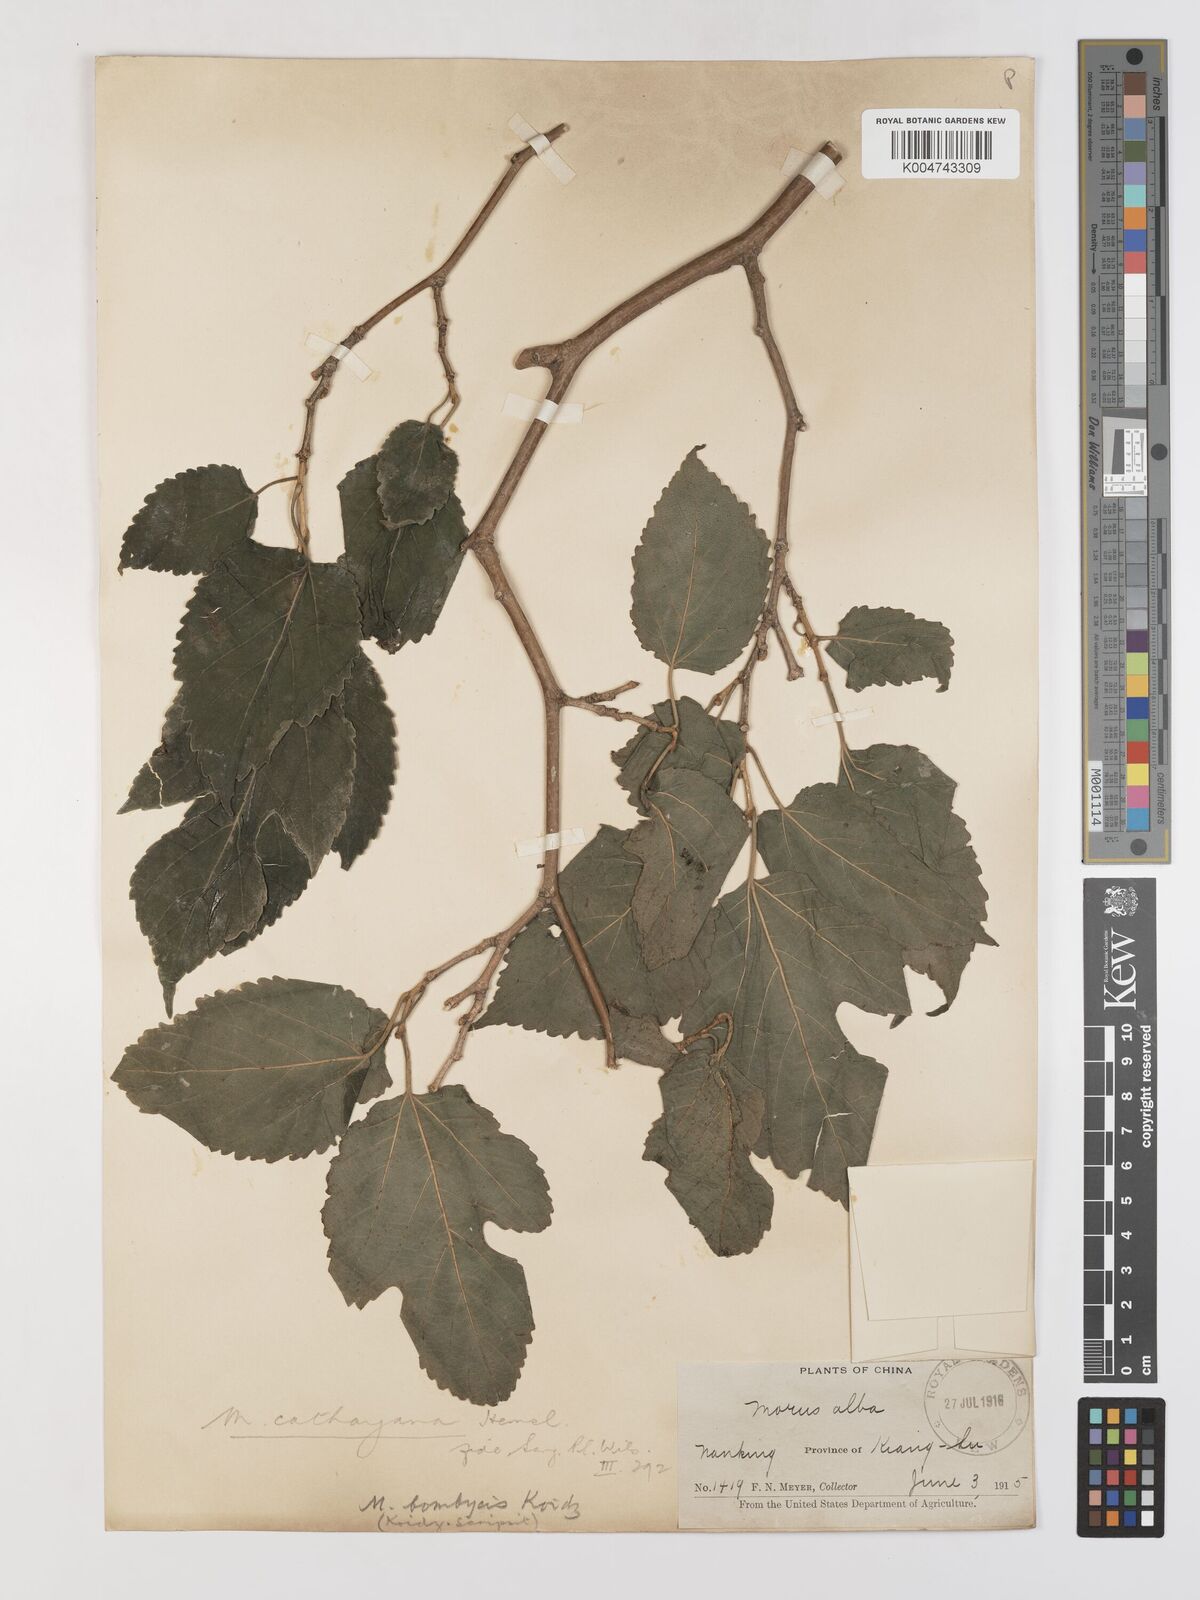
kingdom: Plantae
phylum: Tracheophyta
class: Magnoliopsida
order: Rosales
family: Moraceae
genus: Morus
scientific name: Morus cathayana
